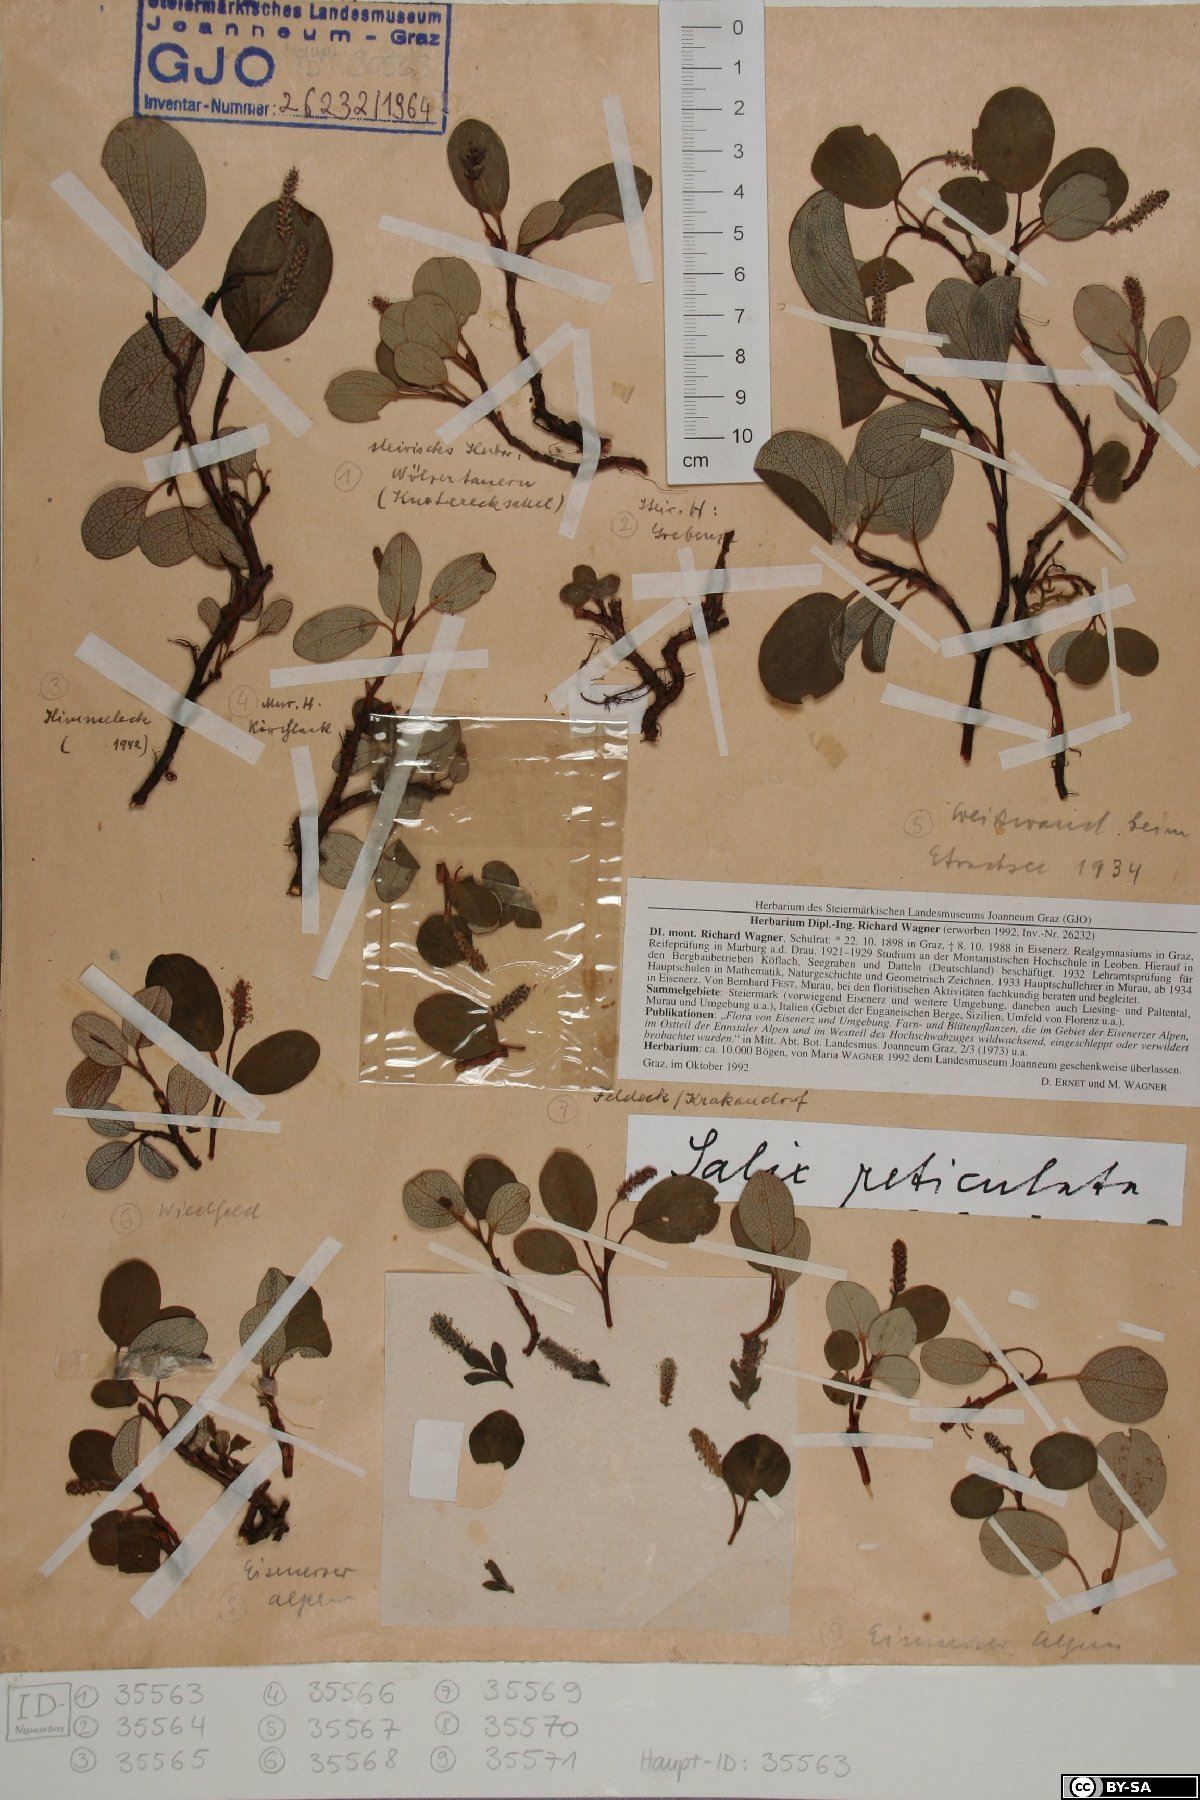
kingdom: Plantae
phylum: Tracheophyta
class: Magnoliopsida
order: Malpighiales
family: Salicaceae
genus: Salix
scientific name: Salix reticulata
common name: Net-leaved willow
